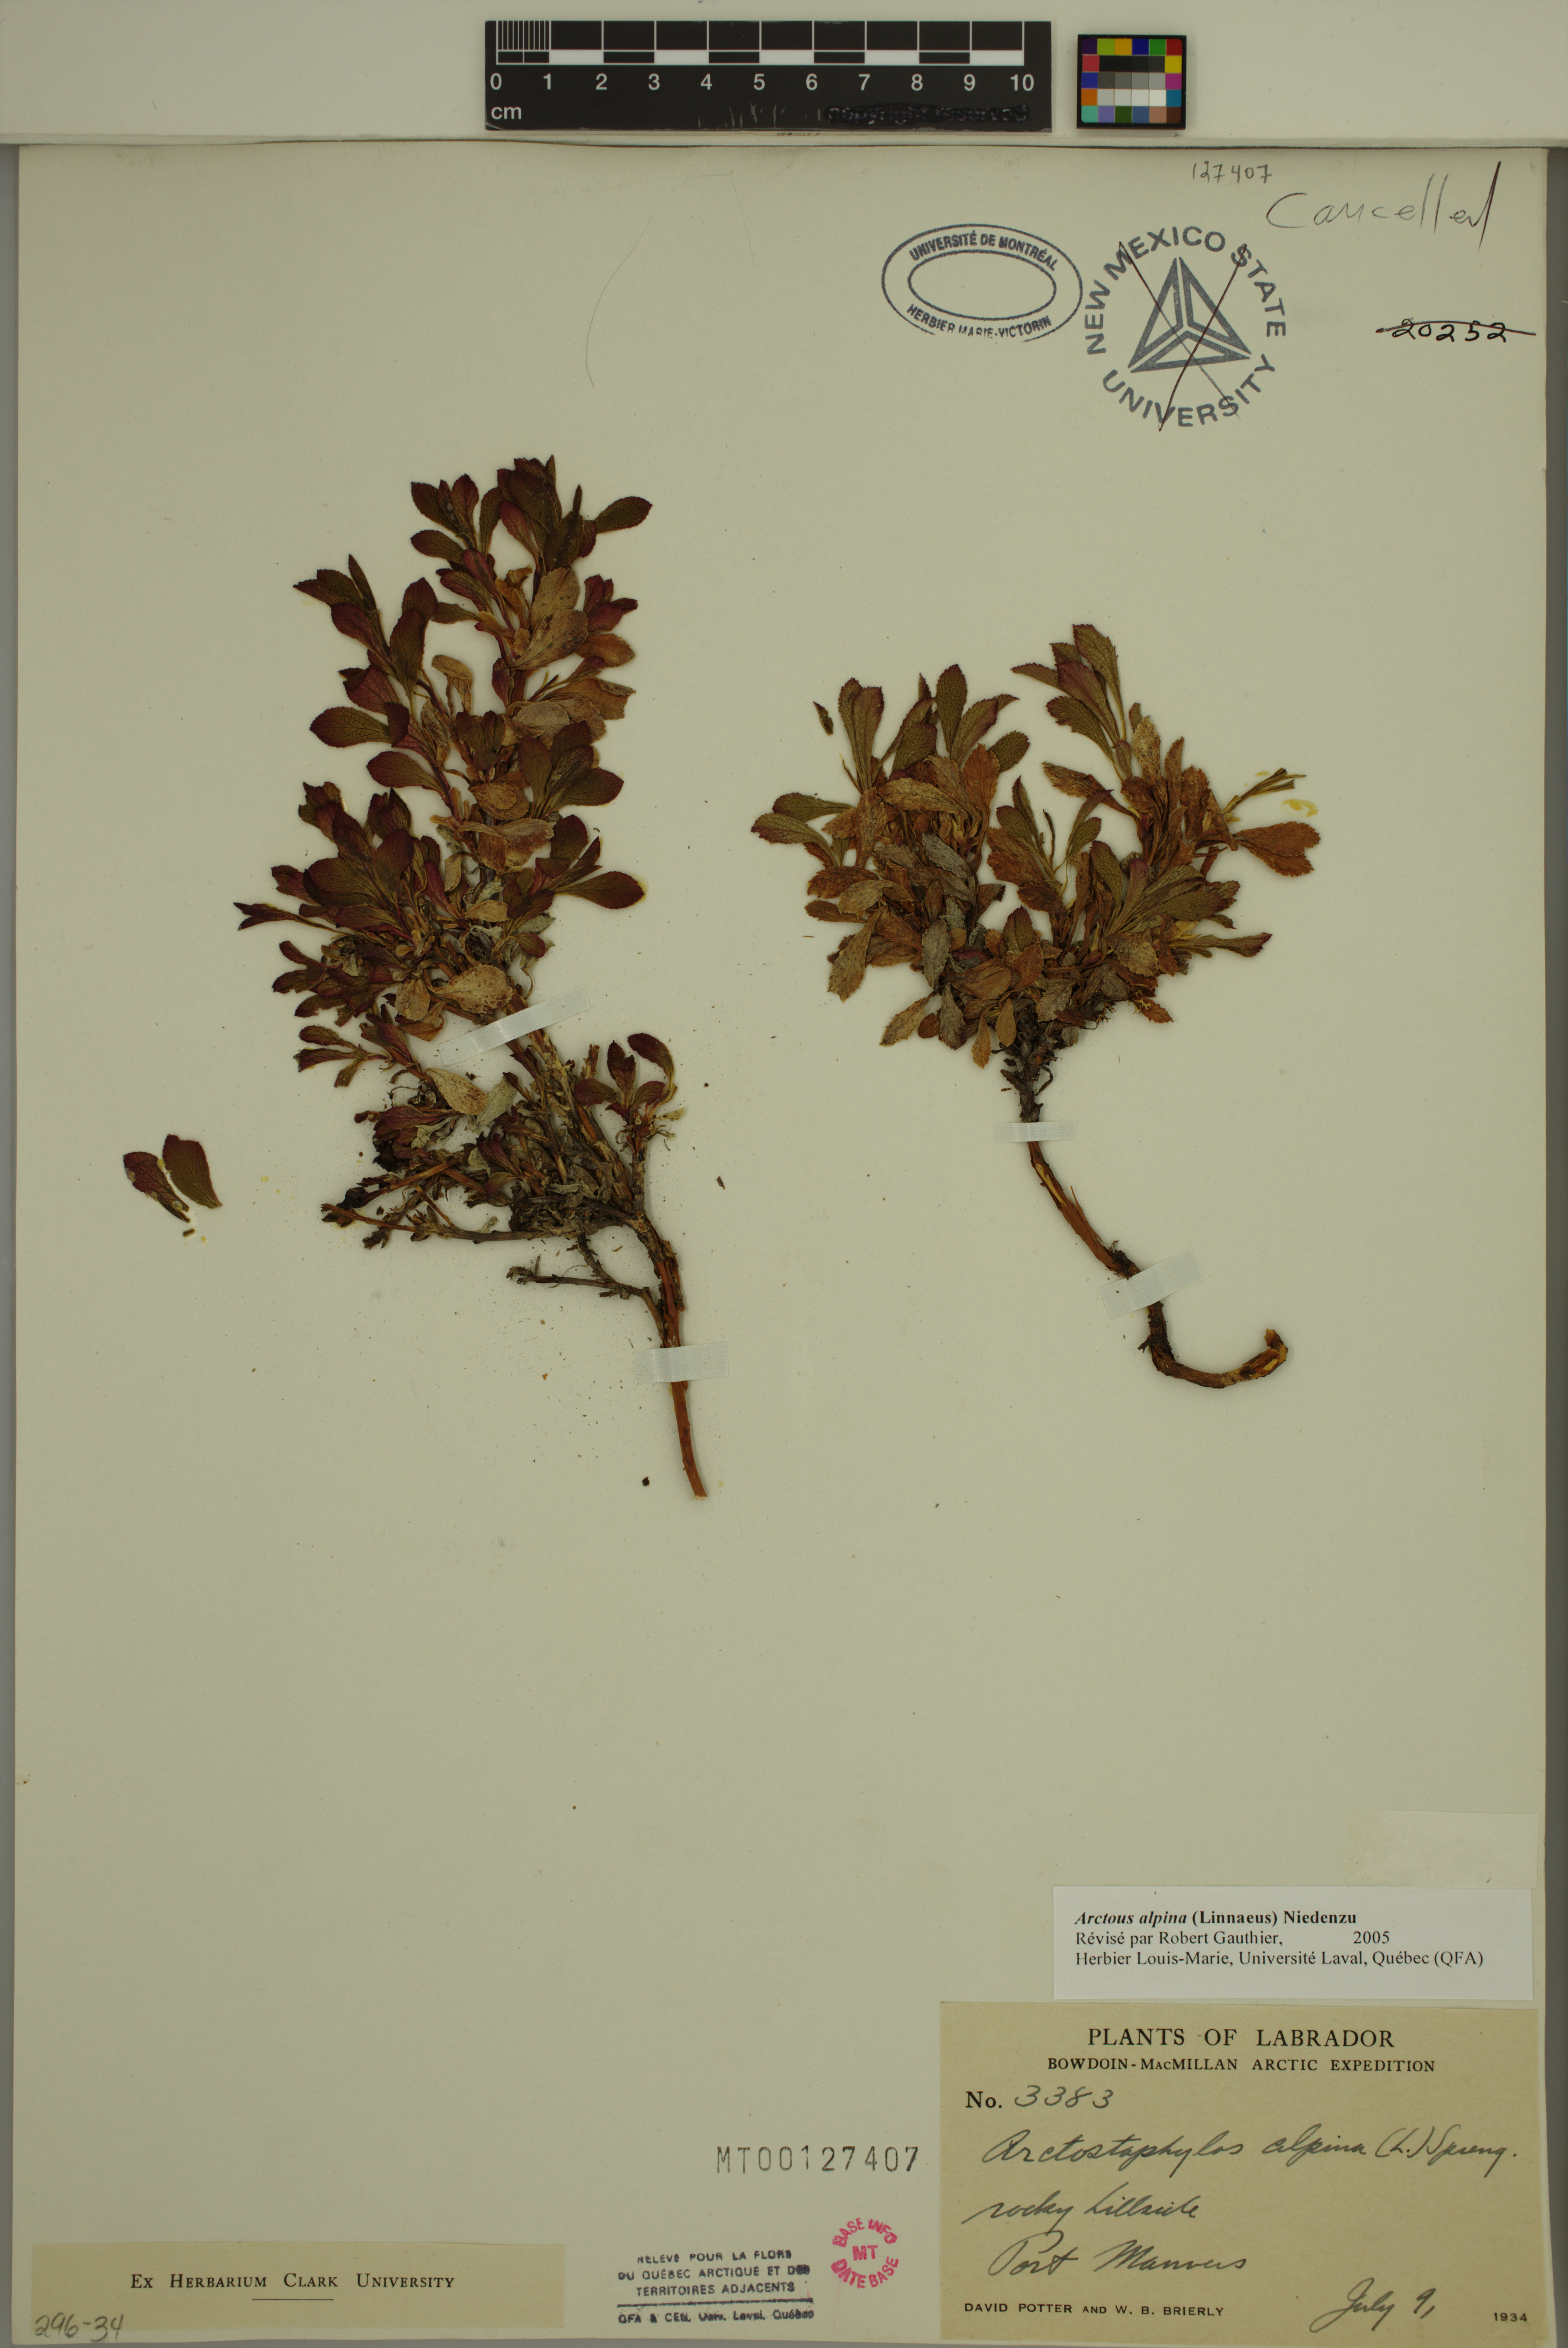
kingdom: Plantae
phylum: Tracheophyta
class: Magnoliopsida
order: Ericales
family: Ericaceae
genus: Arctostaphylos
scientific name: Arctostaphylos alpinus
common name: Alpine bearberry
